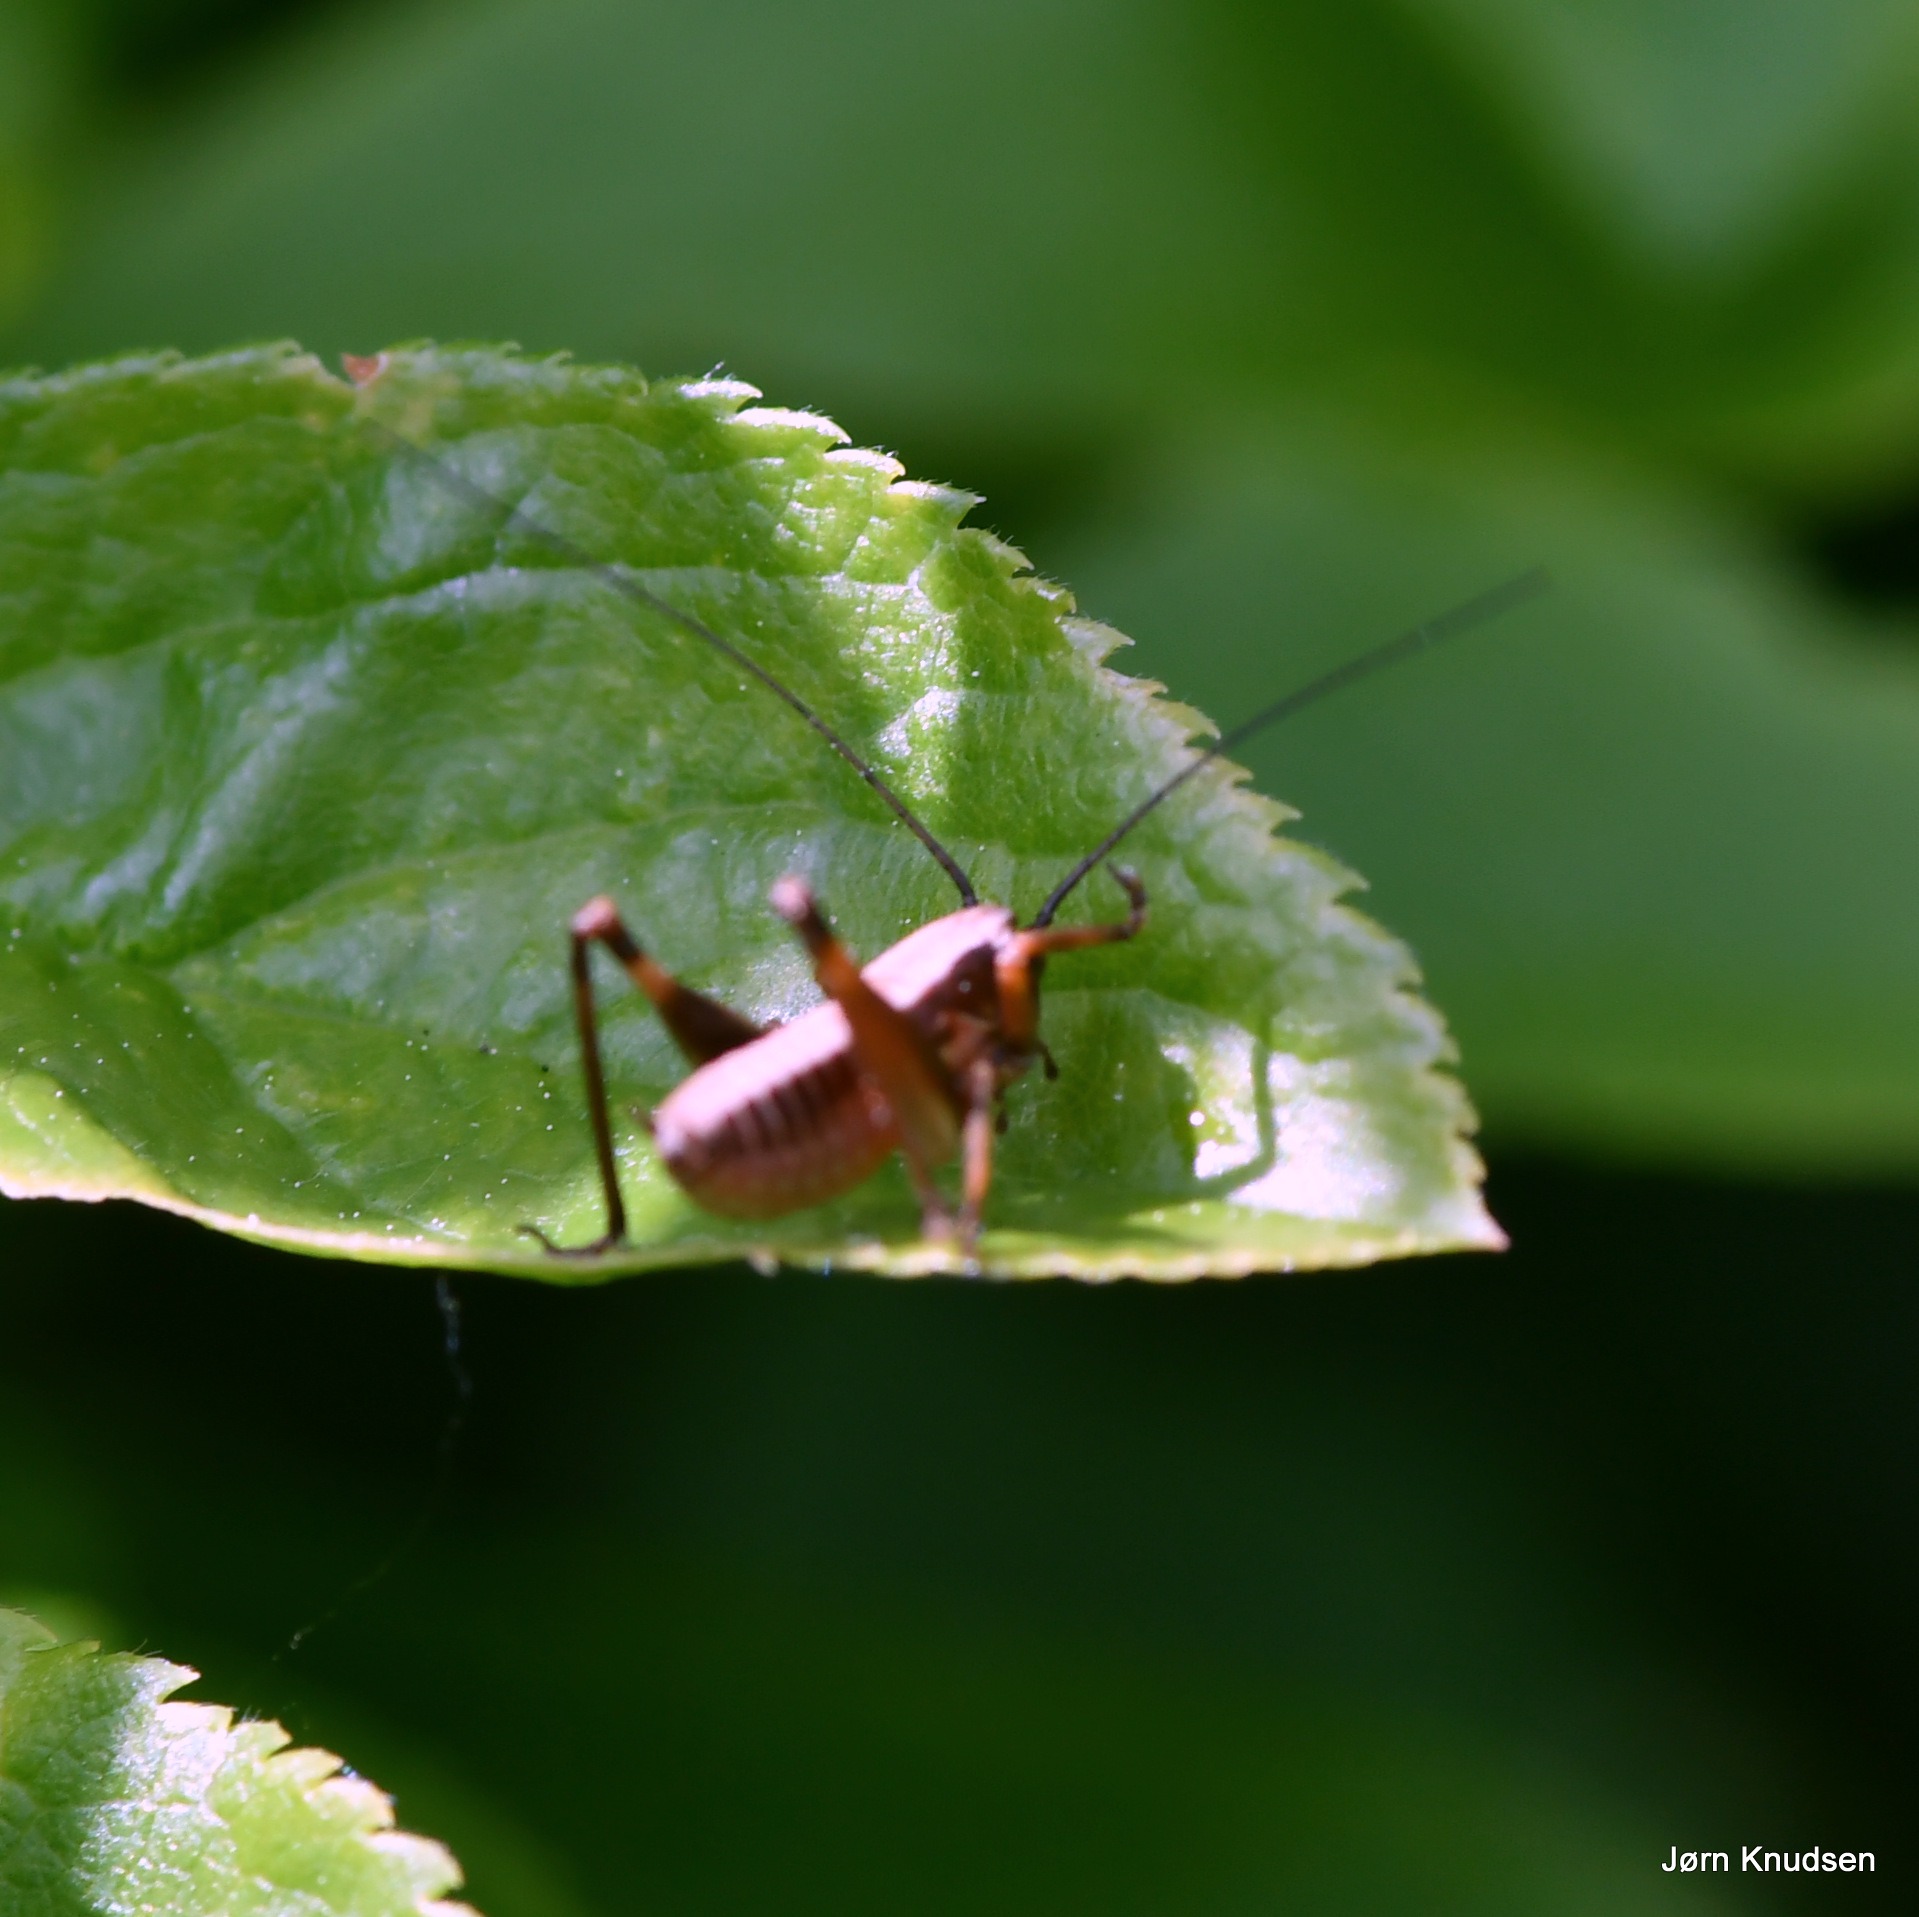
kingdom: Animalia
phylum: Arthropoda
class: Insecta
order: Orthoptera
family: Tettigoniidae
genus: Pholidoptera
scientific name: Pholidoptera griseoaptera
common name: Buskgræshoppe
